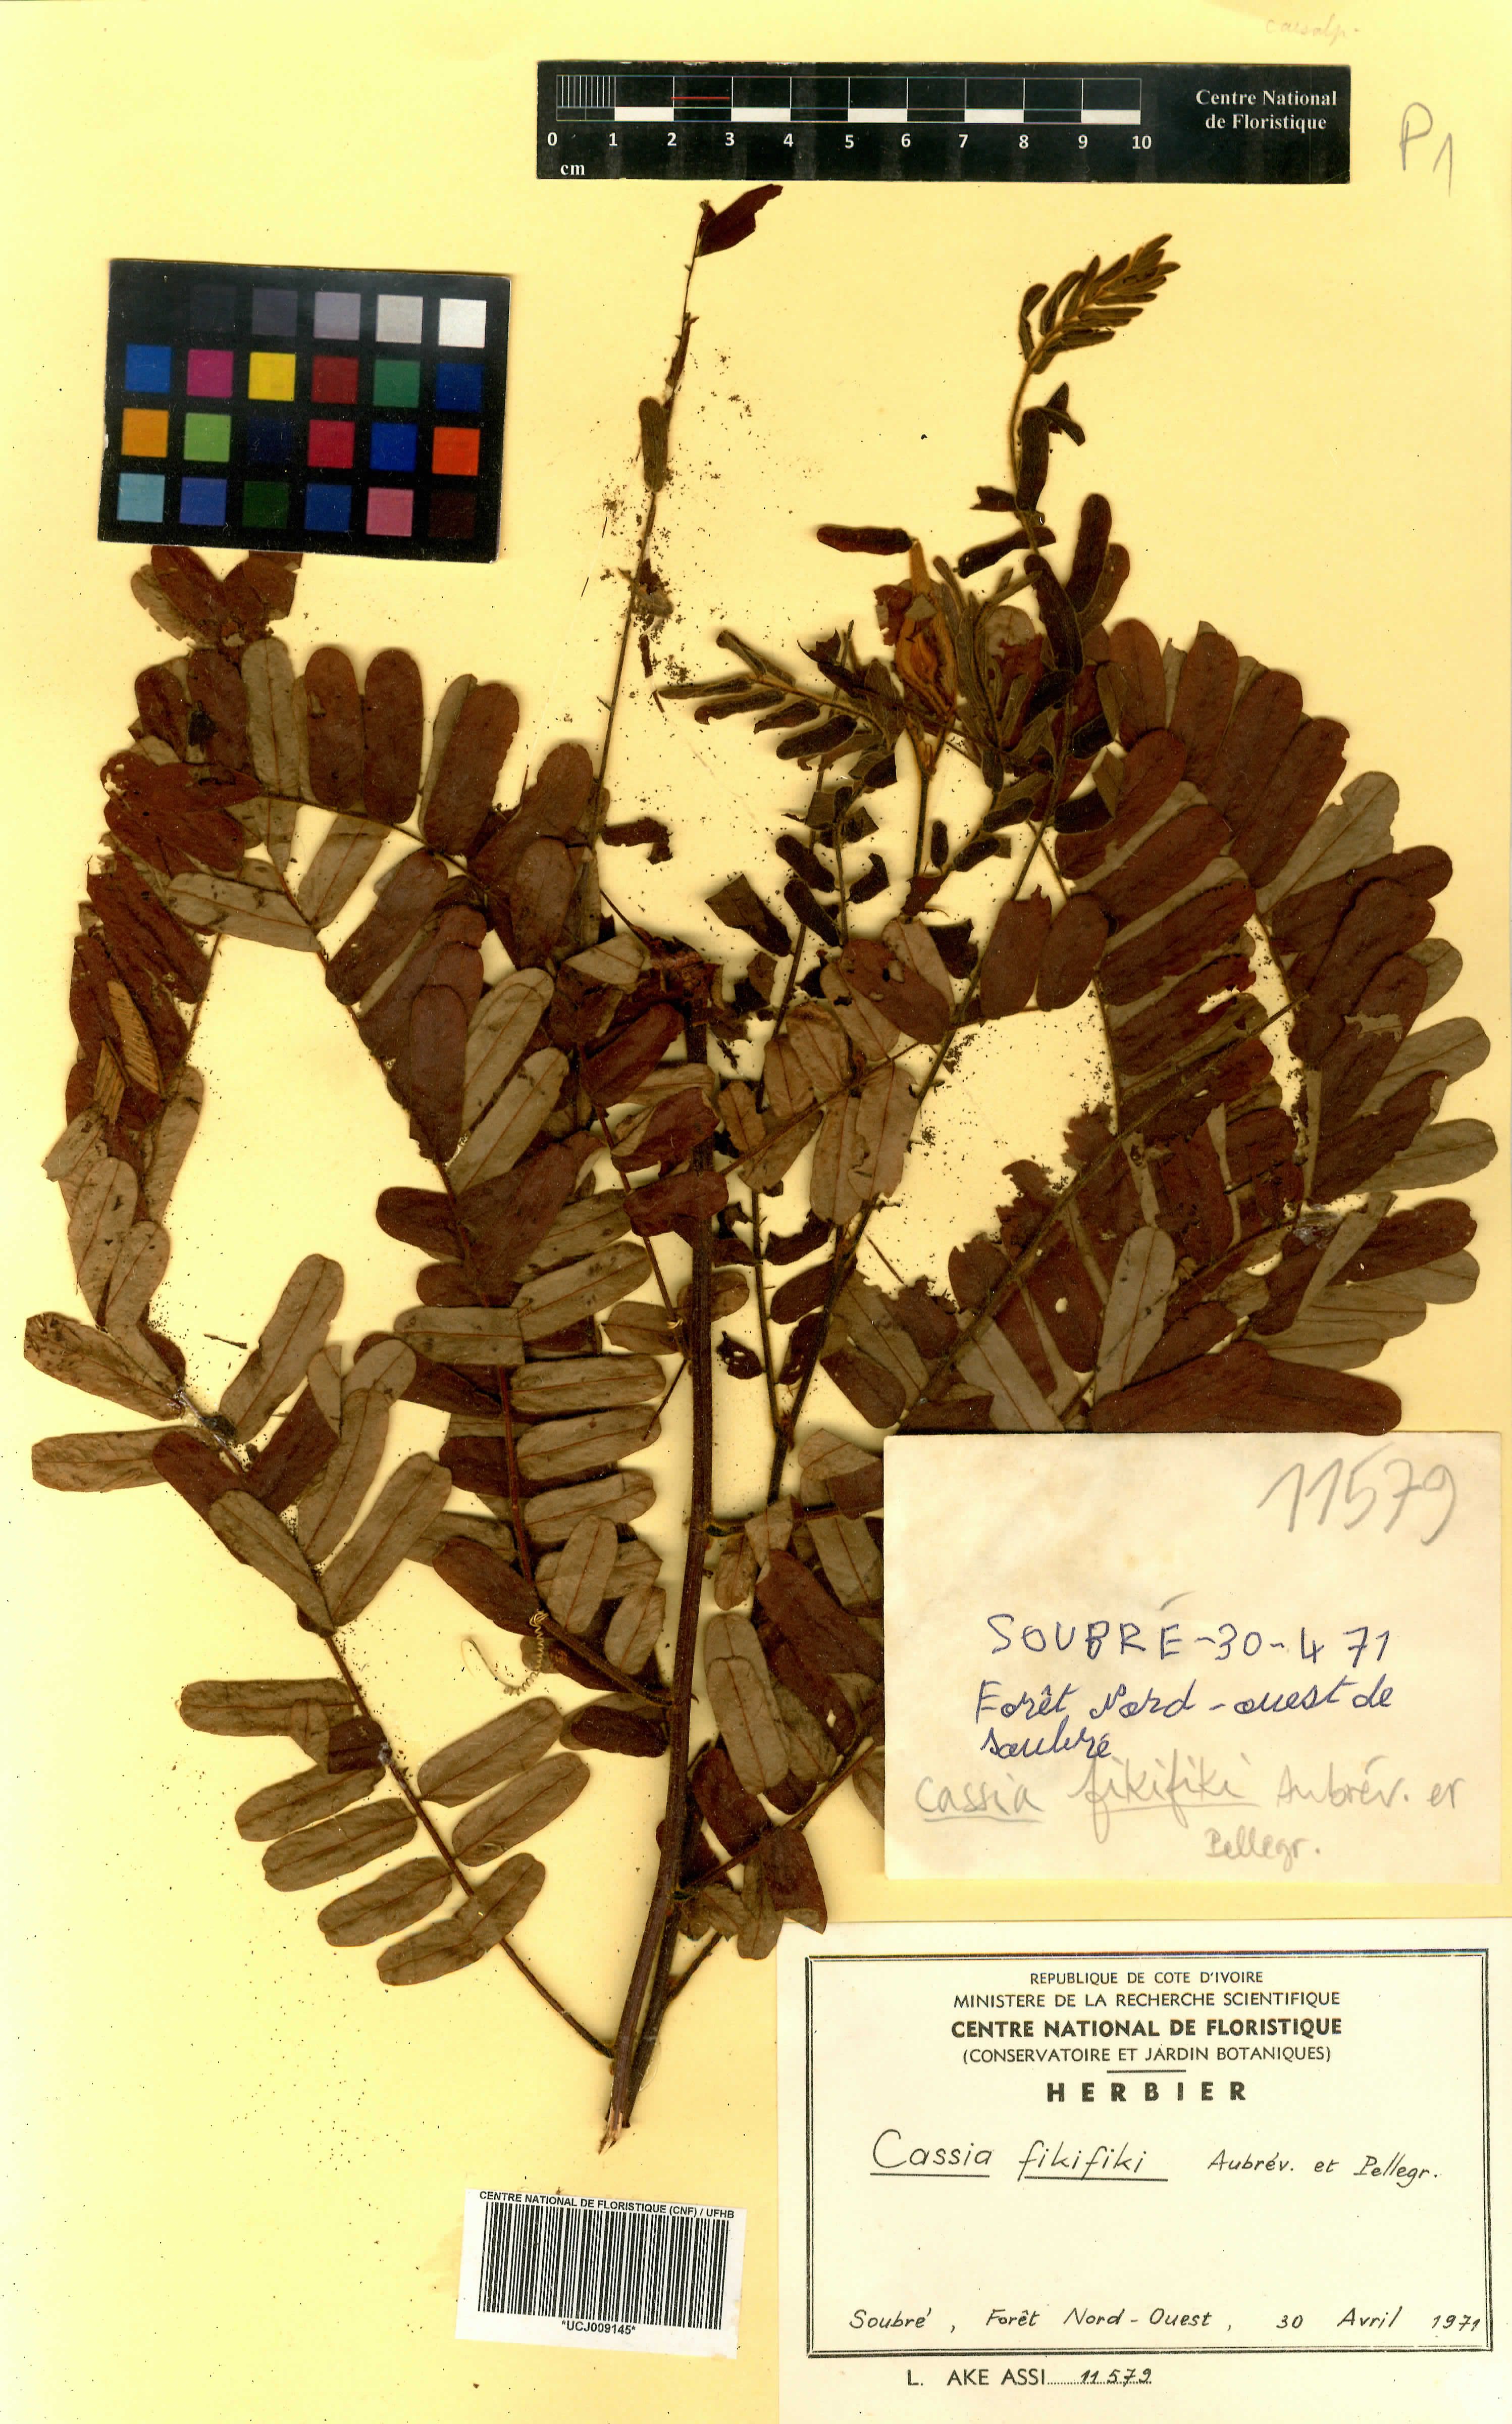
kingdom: Plantae
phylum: Tracheophyta
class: Magnoliopsida
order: Fabales
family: Fabaceae
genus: Cassia
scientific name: Cassia fikifiki
